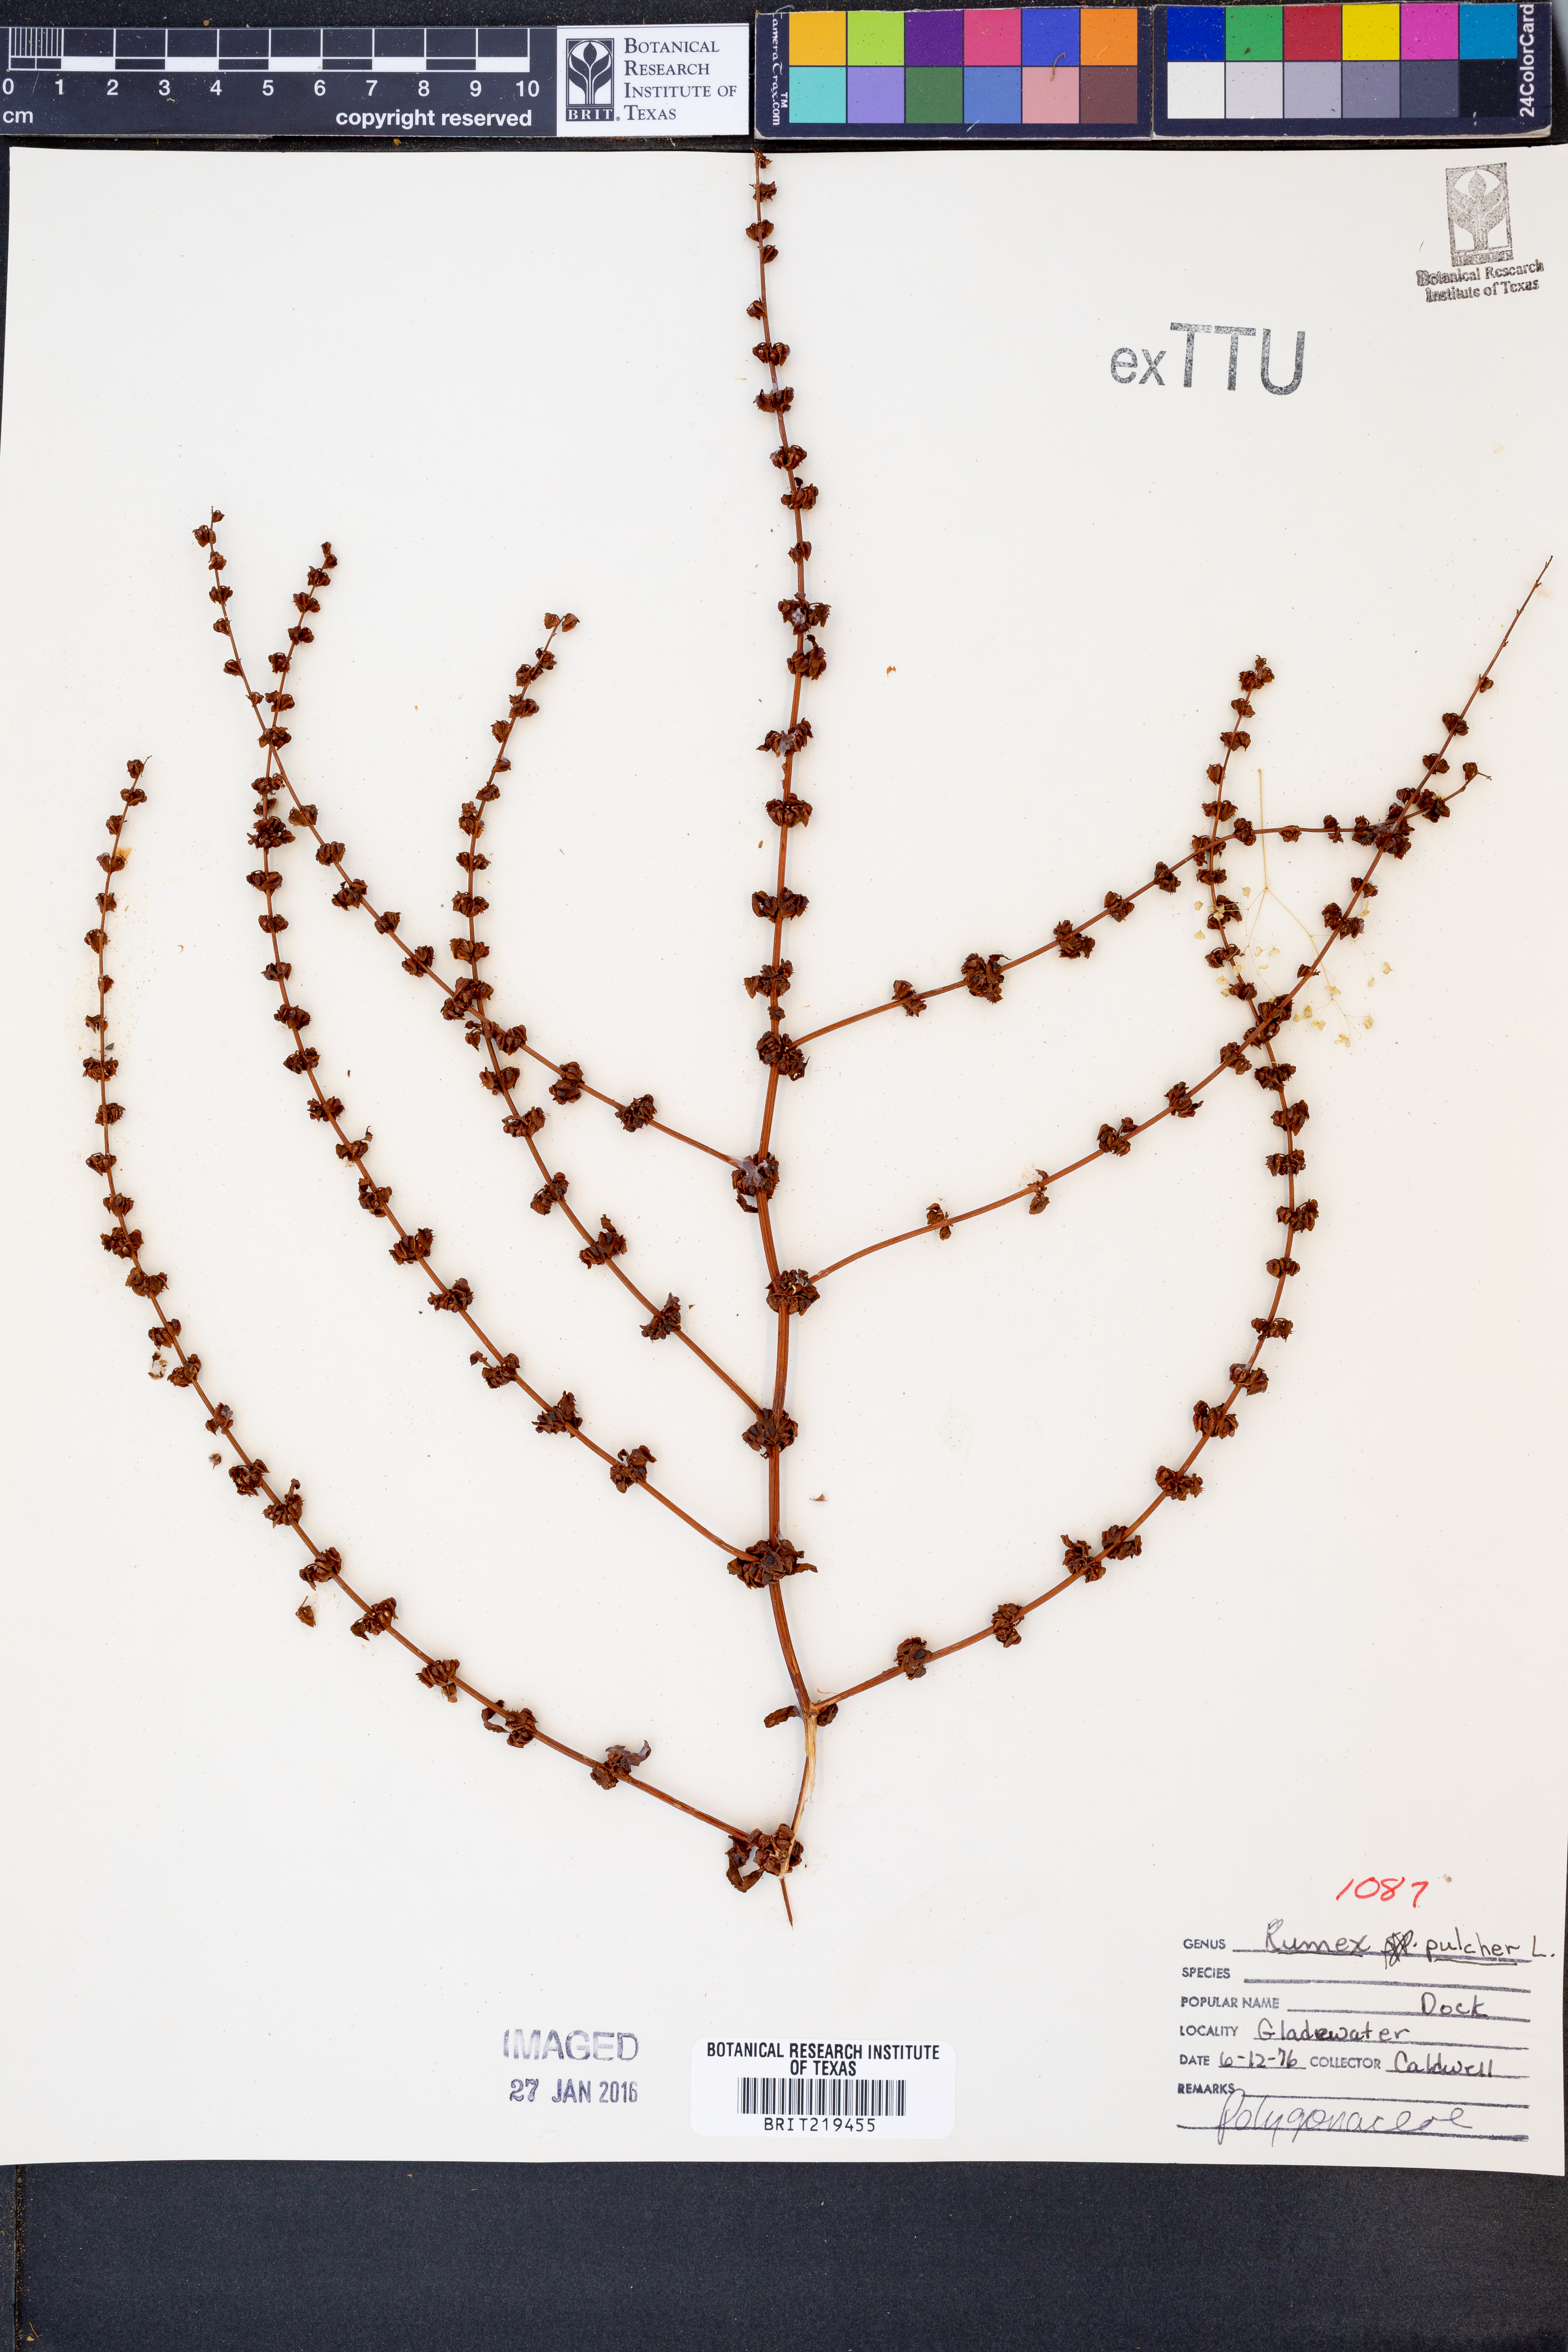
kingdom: Plantae
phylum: Tracheophyta
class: Magnoliopsida
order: Caryophyllales
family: Polygonaceae
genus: Rumex
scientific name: Rumex pulcher
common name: Fiddle dock
